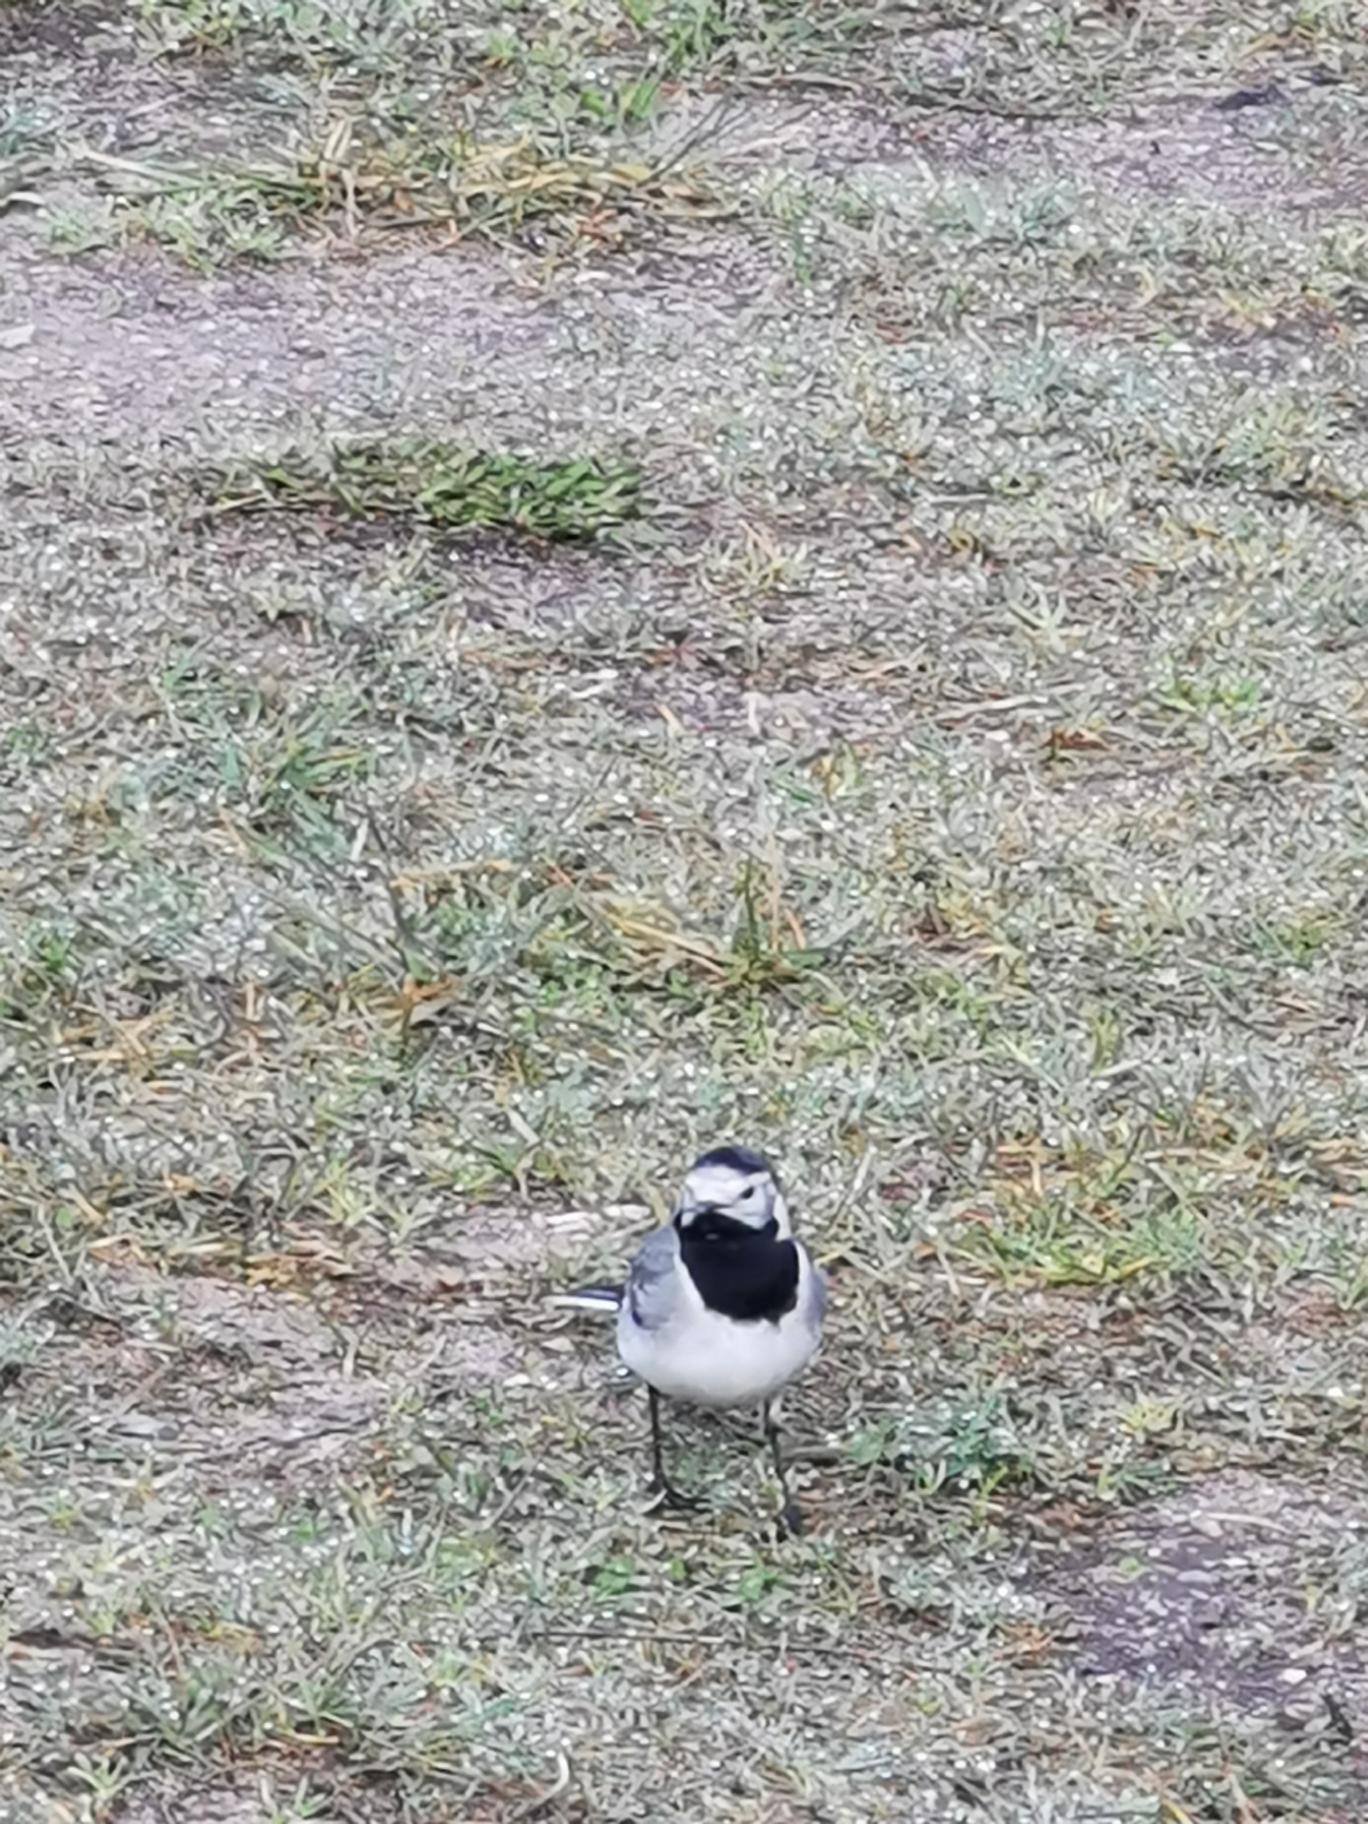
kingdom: Animalia
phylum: Chordata
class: Aves
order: Passeriformes
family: Motacillidae
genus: Motacilla
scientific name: Motacilla alba
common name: Hvid vipstjert
